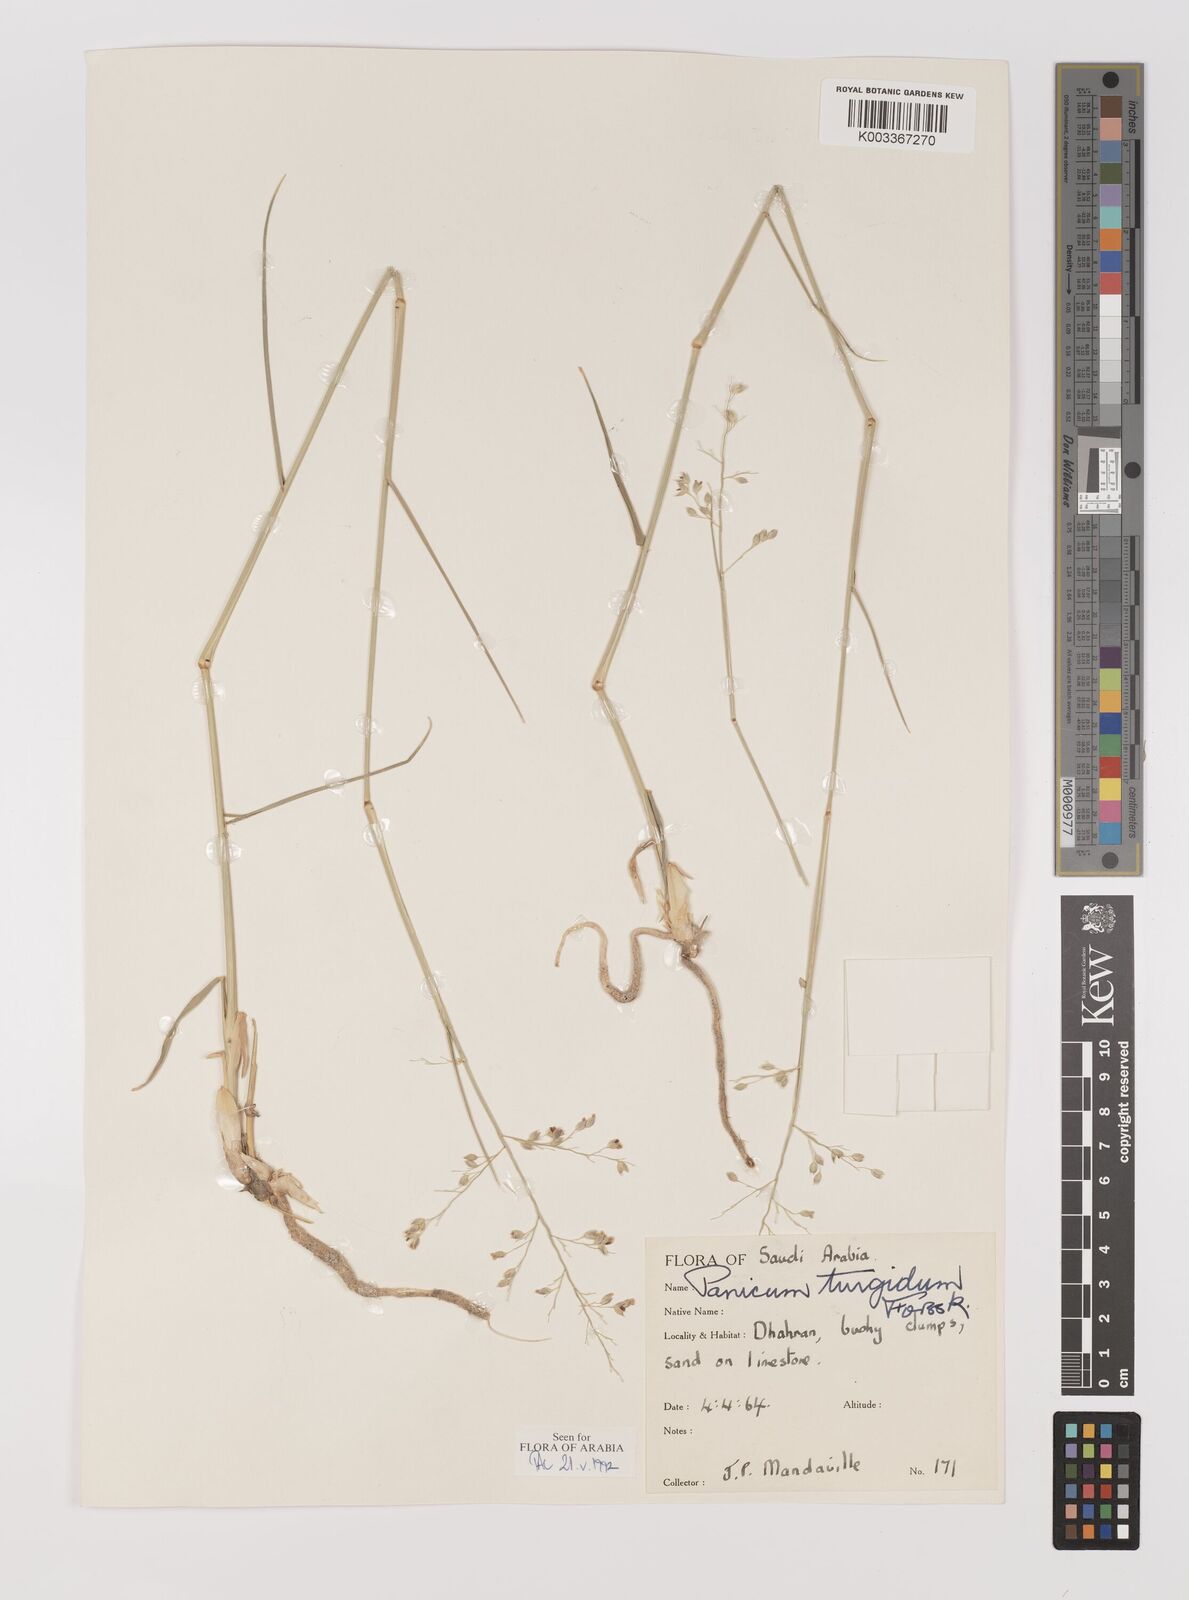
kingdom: Plantae
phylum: Tracheophyta
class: Liliopsida
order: Poales
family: Poaceae
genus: Panicum
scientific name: Panicum turgidum
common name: Desert grass
